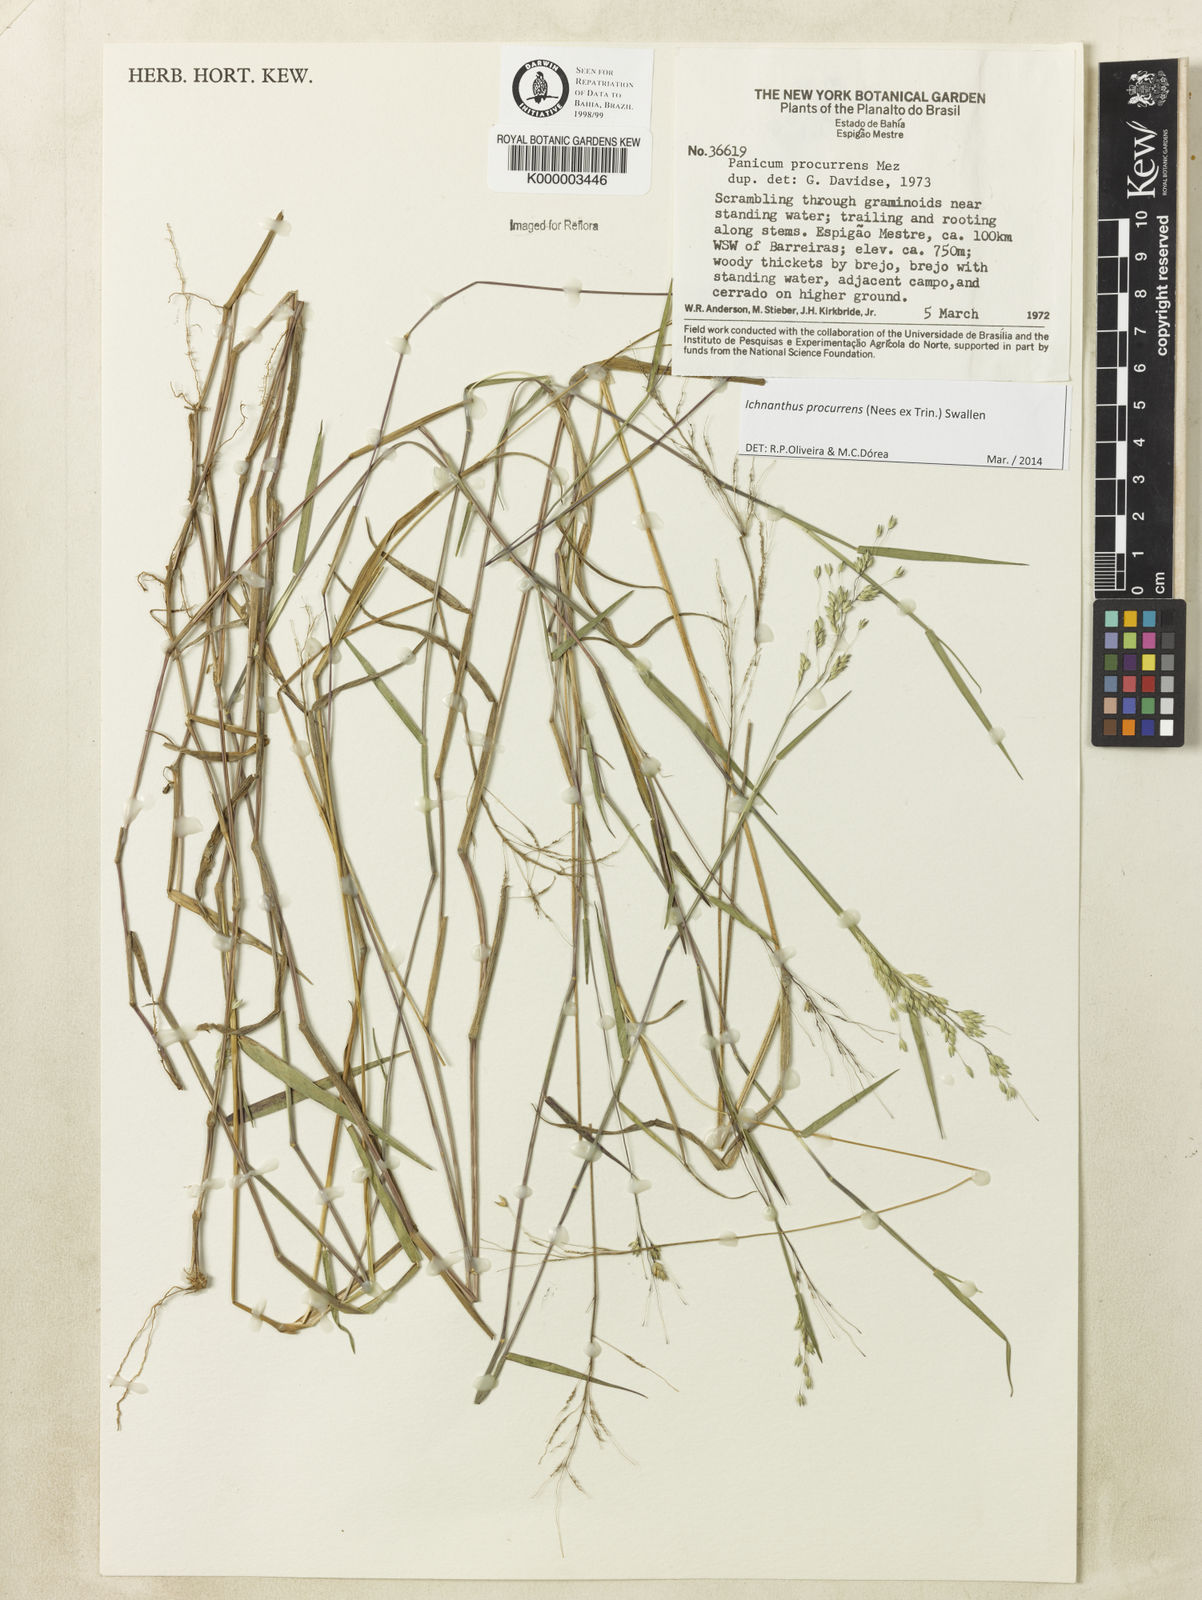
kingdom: Plantae
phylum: Tracheophyta
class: Liliopsida
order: Poales
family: Poaceae
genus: Oedochloa
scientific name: Oedochloa procurrens
